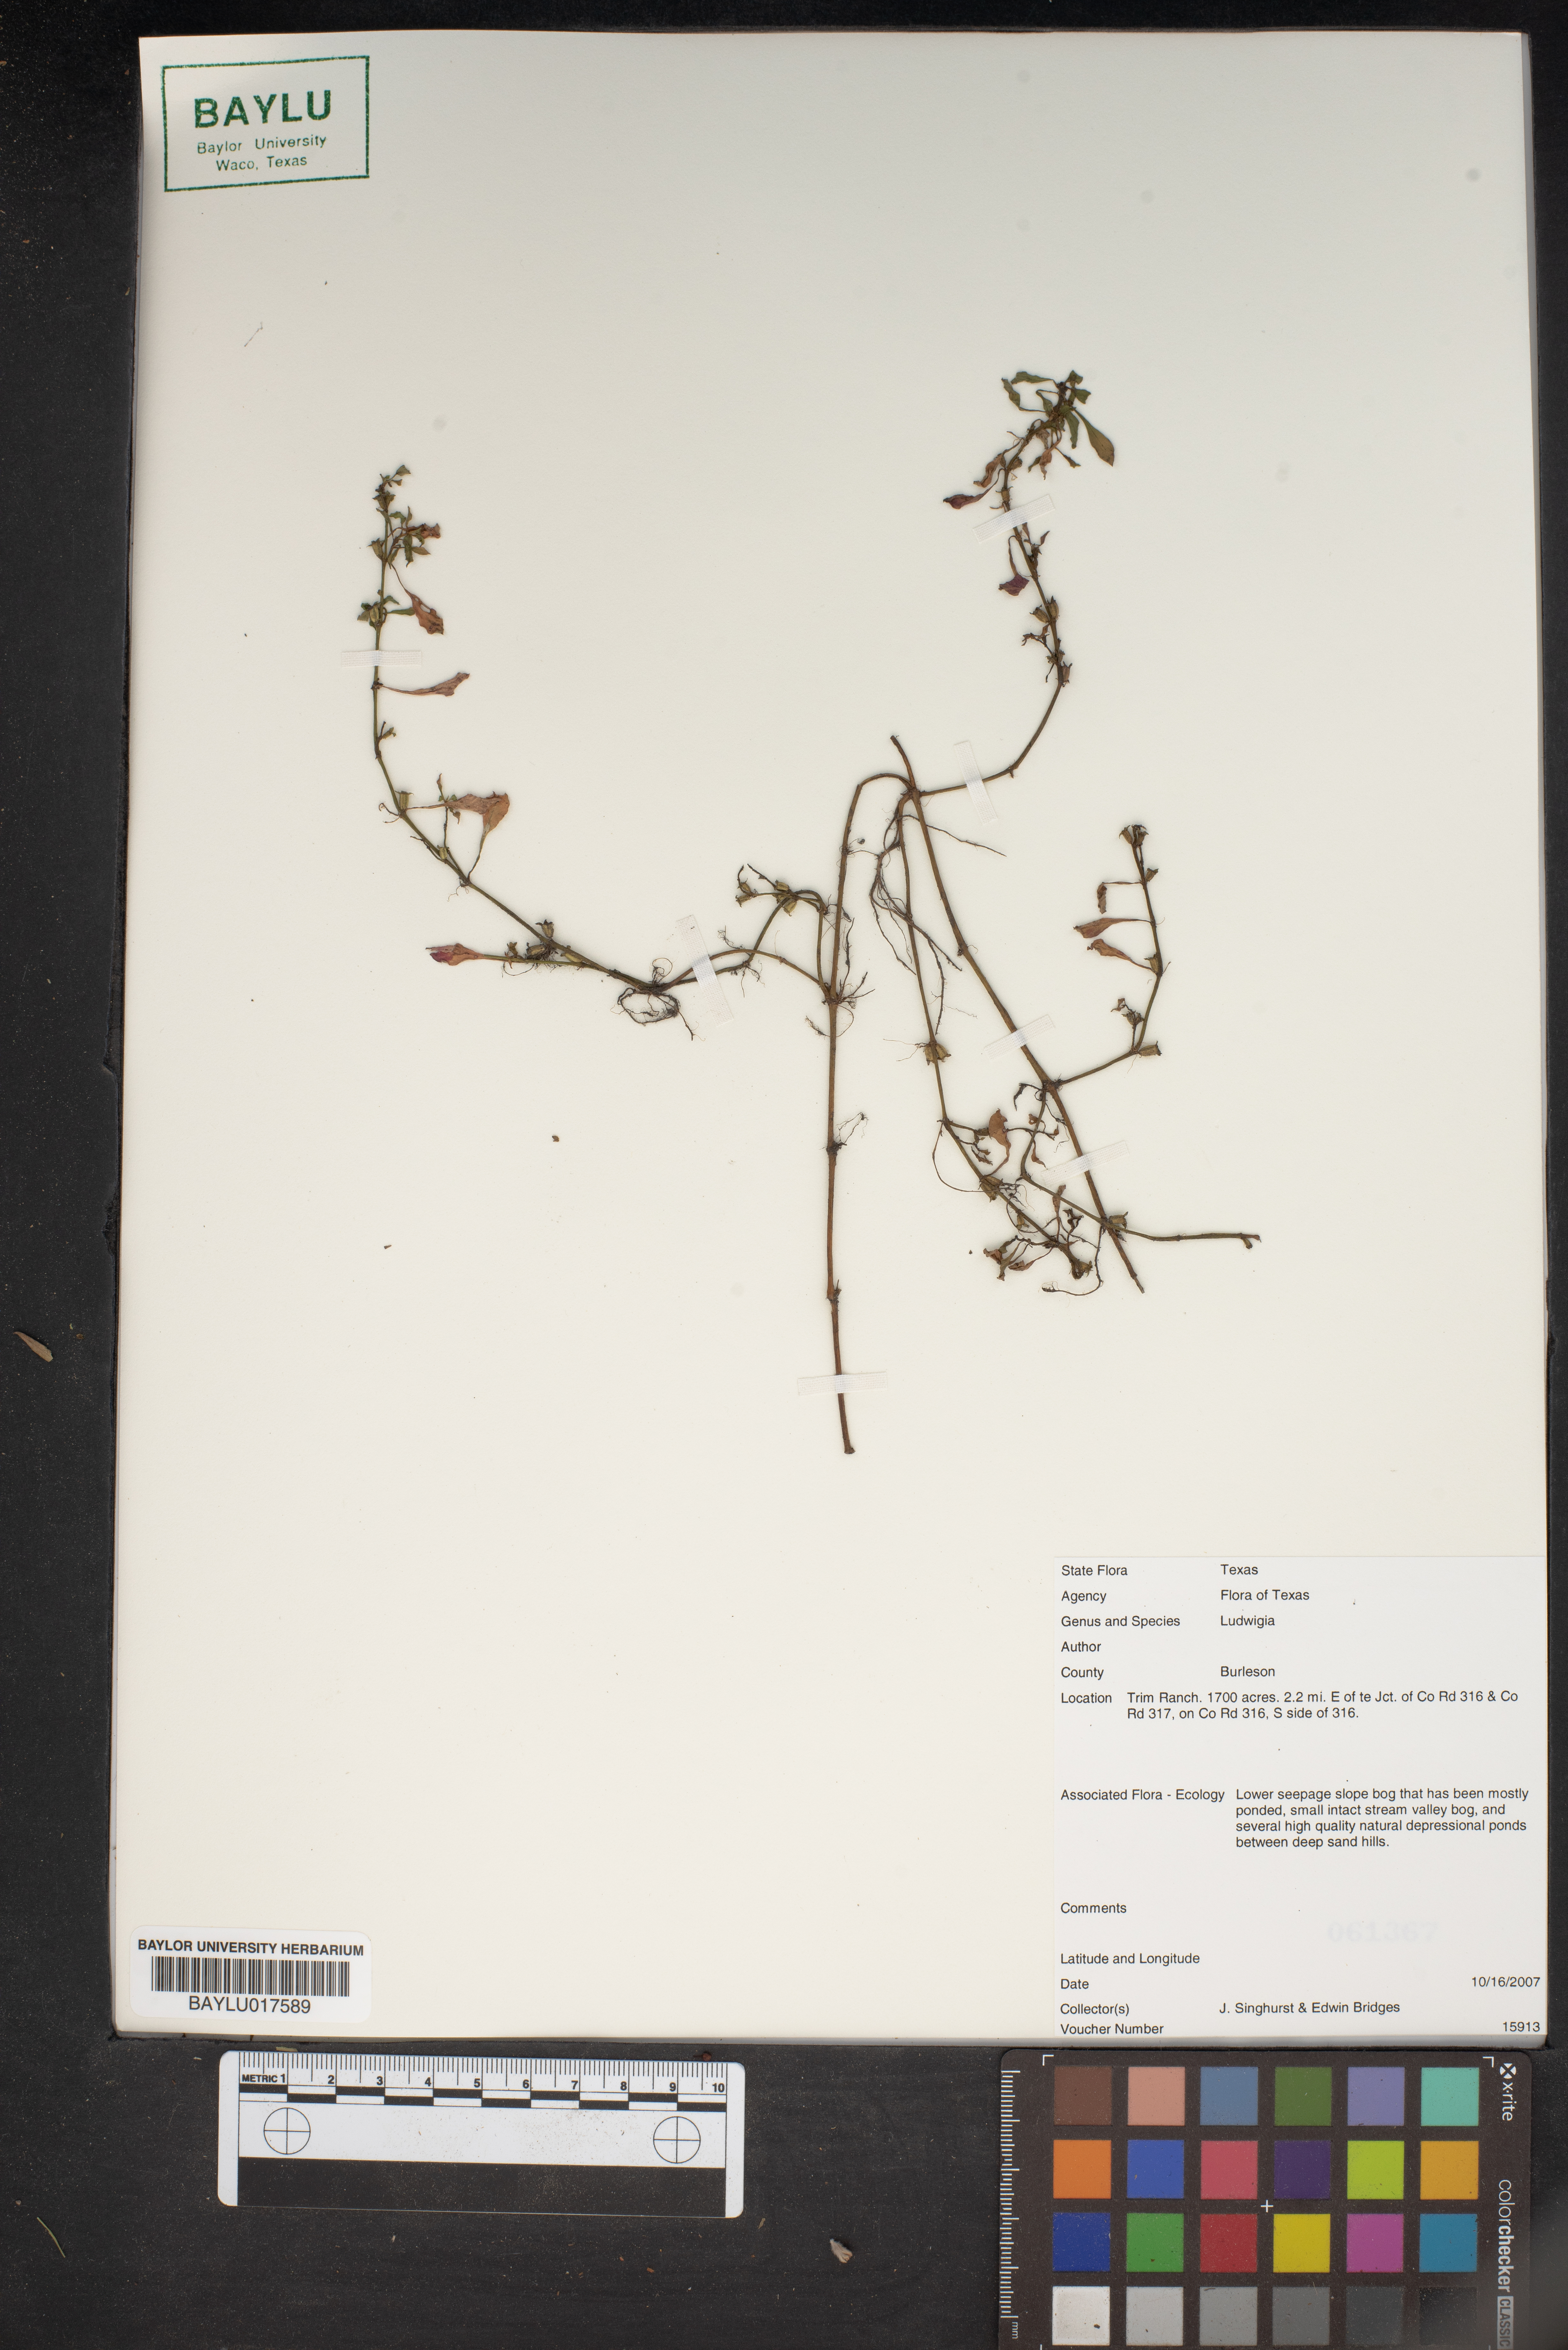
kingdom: Plantae
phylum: Tracheophyta
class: Magnoliopsida
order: Myrtales
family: Onagraceae
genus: Ludwigia
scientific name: Ludwigia
